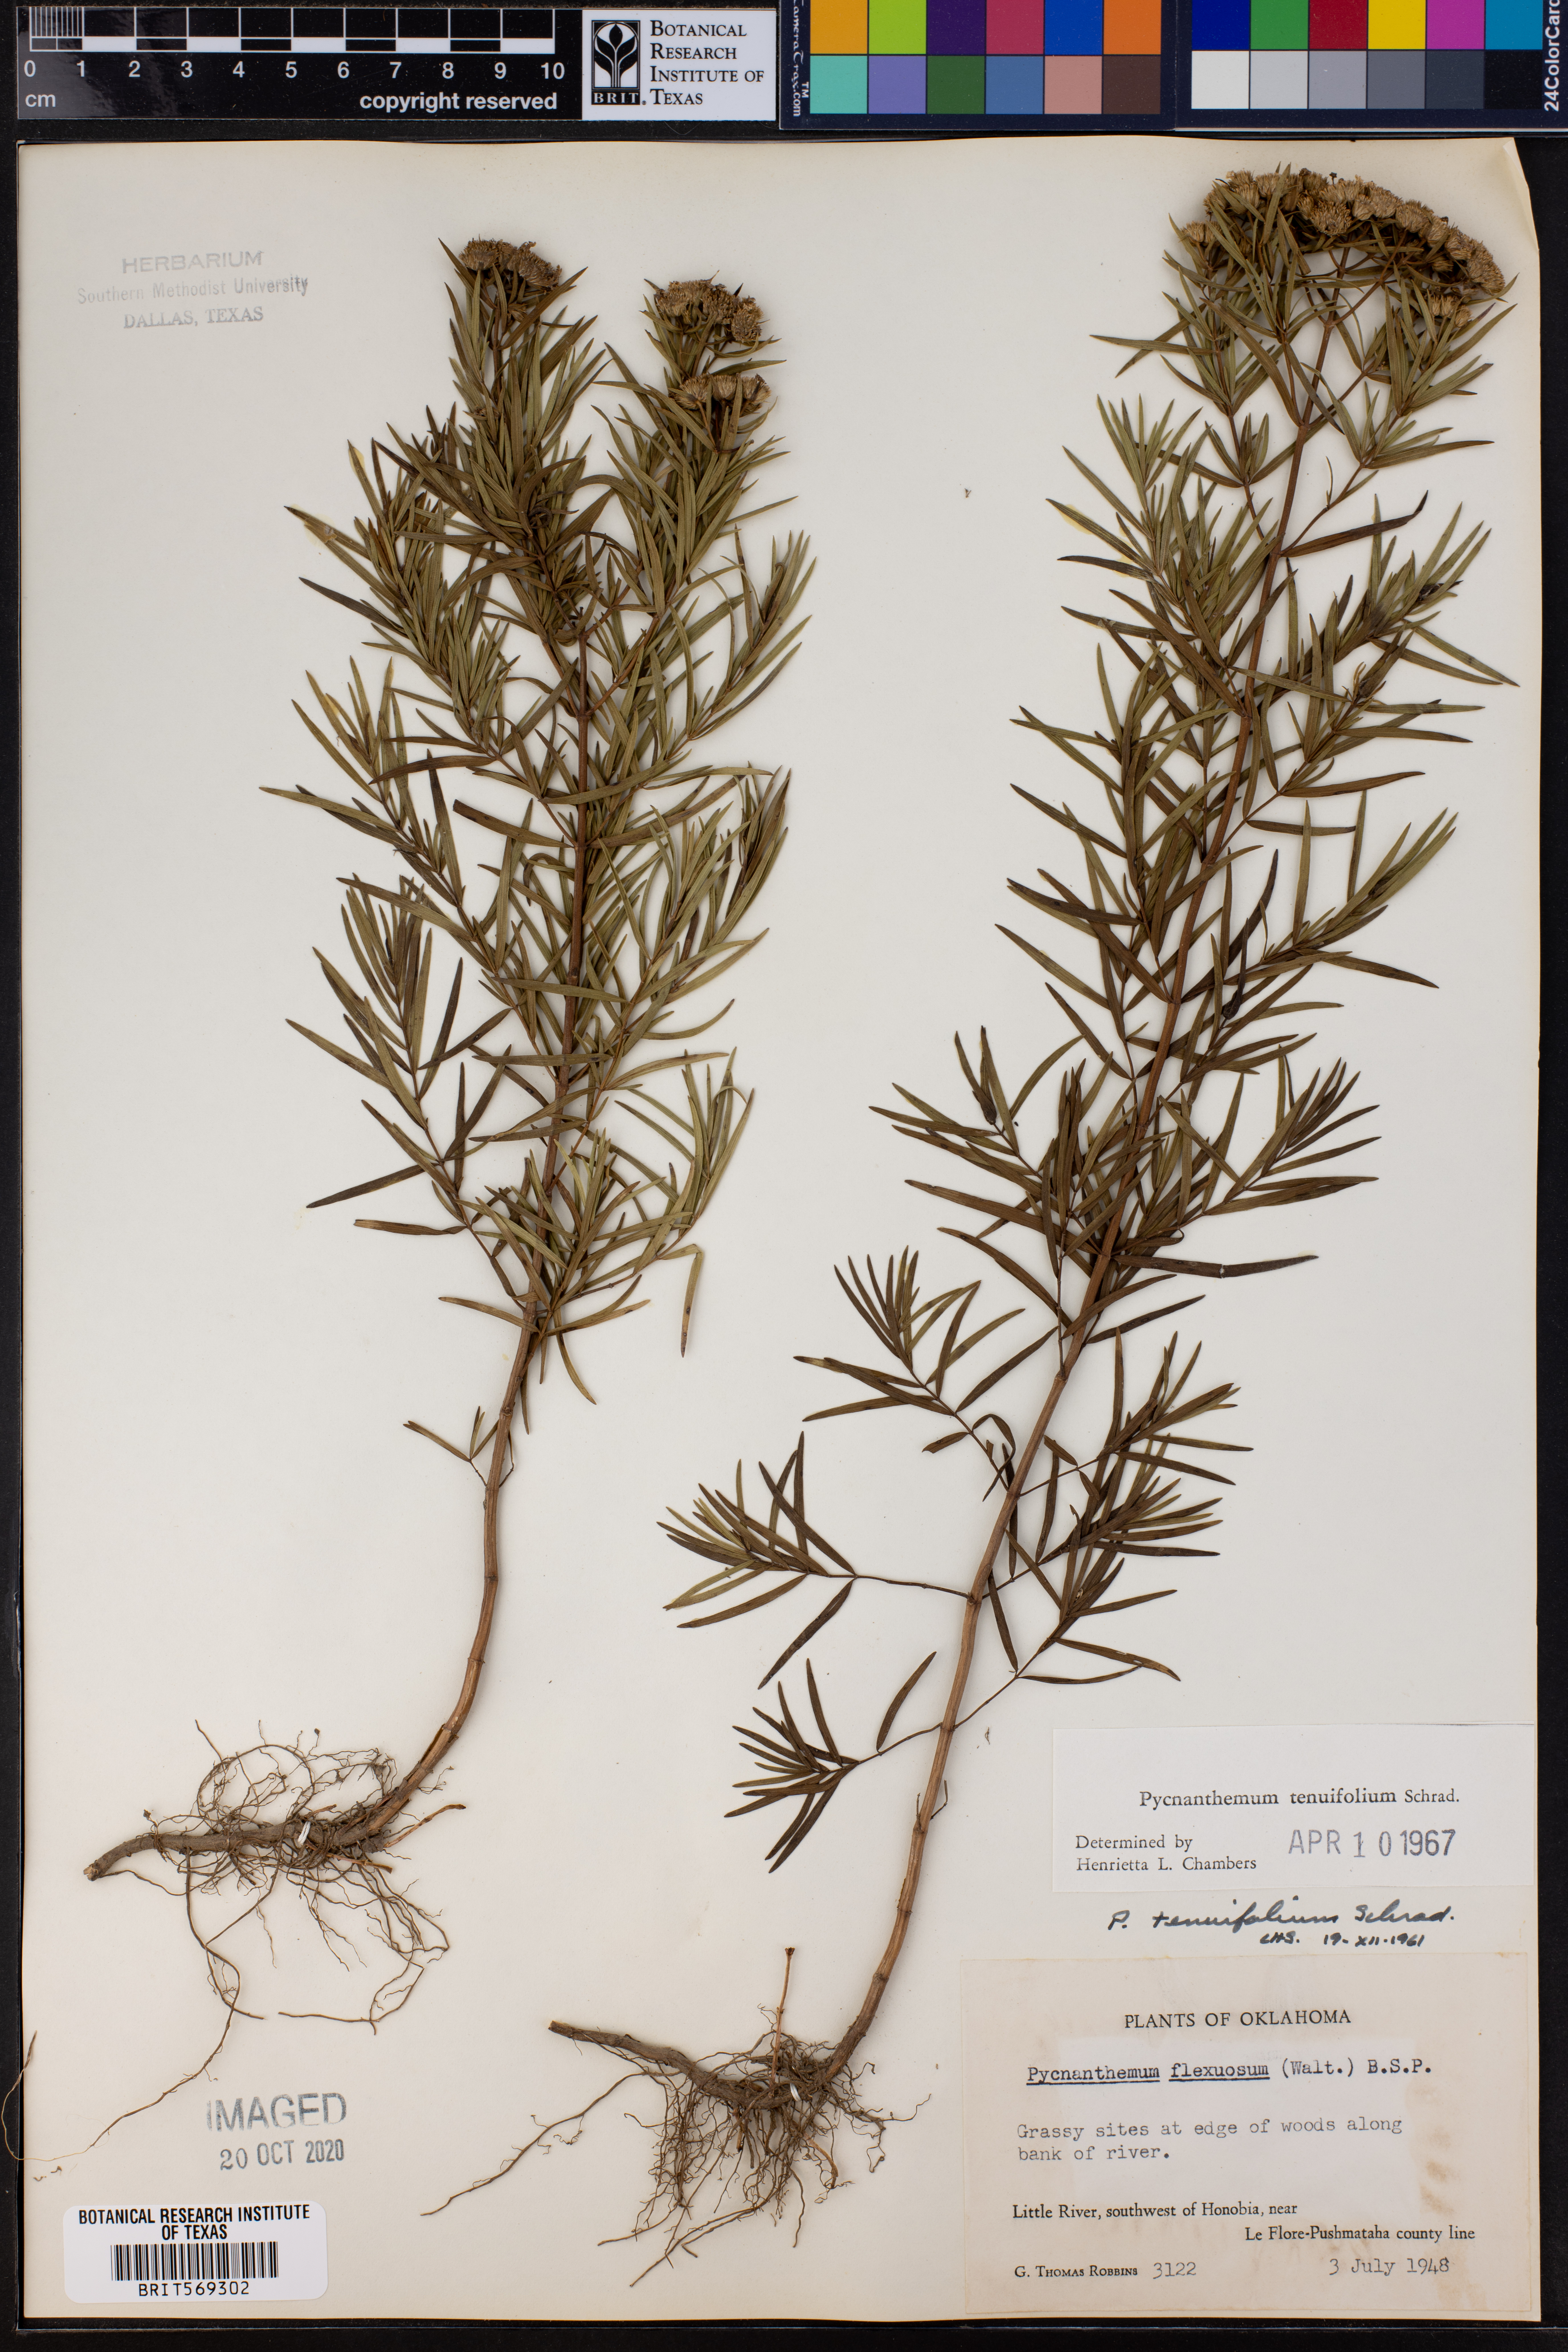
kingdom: Plantae
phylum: Tracheophyta
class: Magnoliopsida
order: Lamiales
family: Lamiaceae
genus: Pycnanthemum
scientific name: Pycnanthemum tenuifolium
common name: Narrow-leaf mountain-mint
